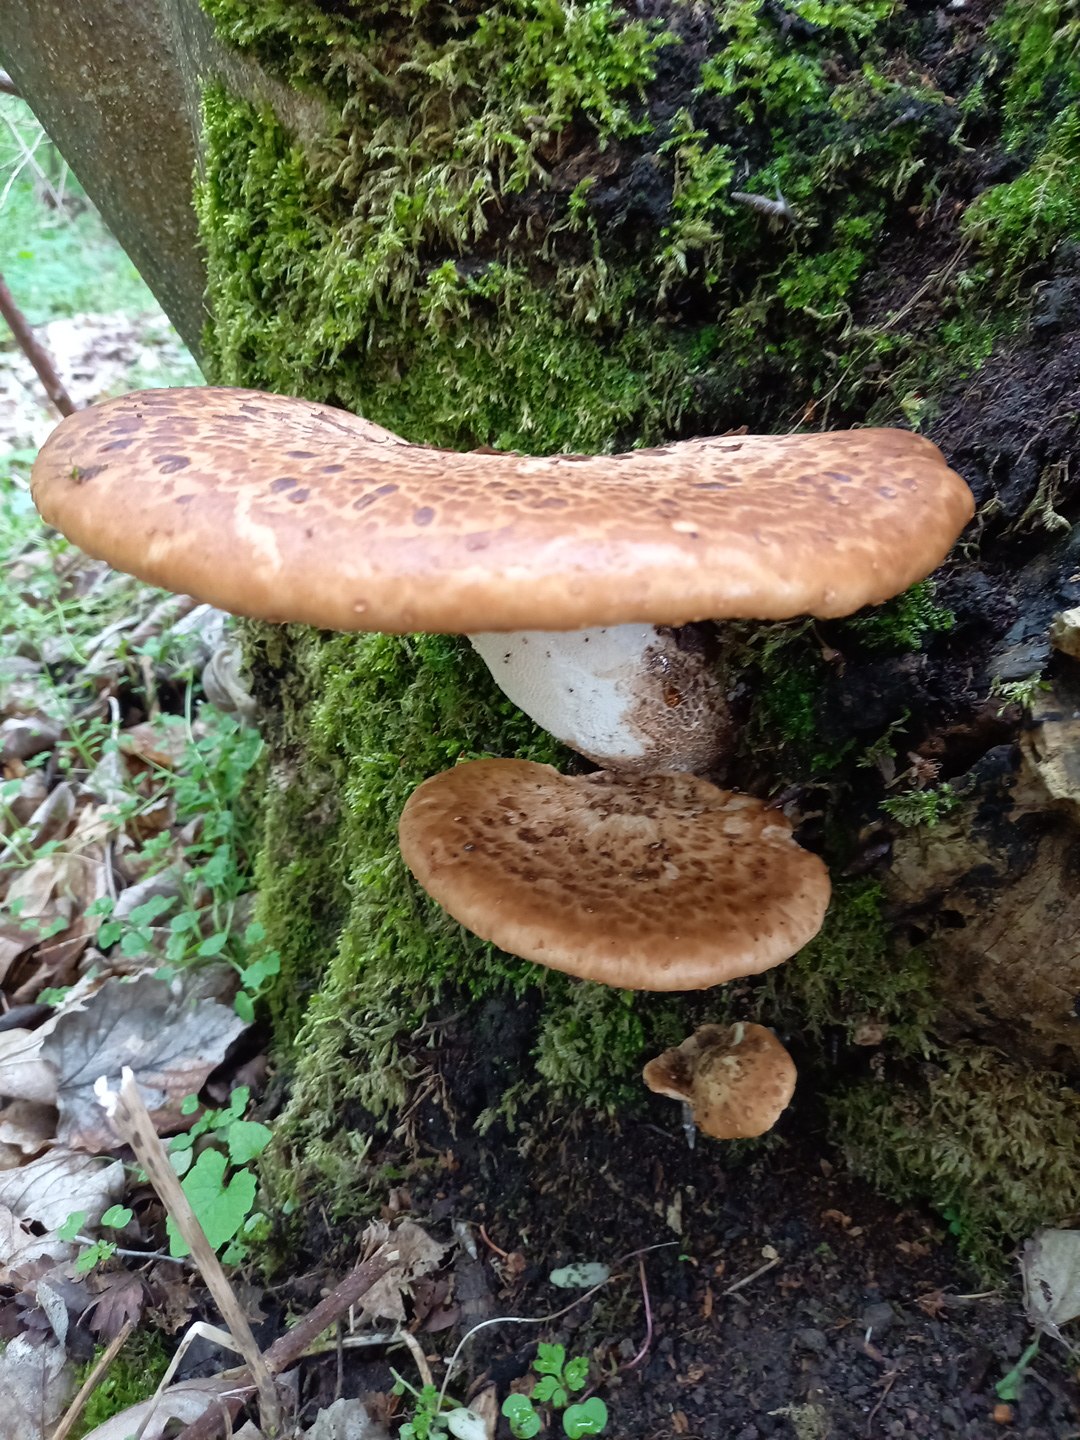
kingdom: Fungi
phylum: Basidiomycota
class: Agaricomycetes
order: Polyporales
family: Polyporaceae
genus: Cerioporus
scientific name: Cerioporus squamosus
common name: skællet stilkporesvamp
